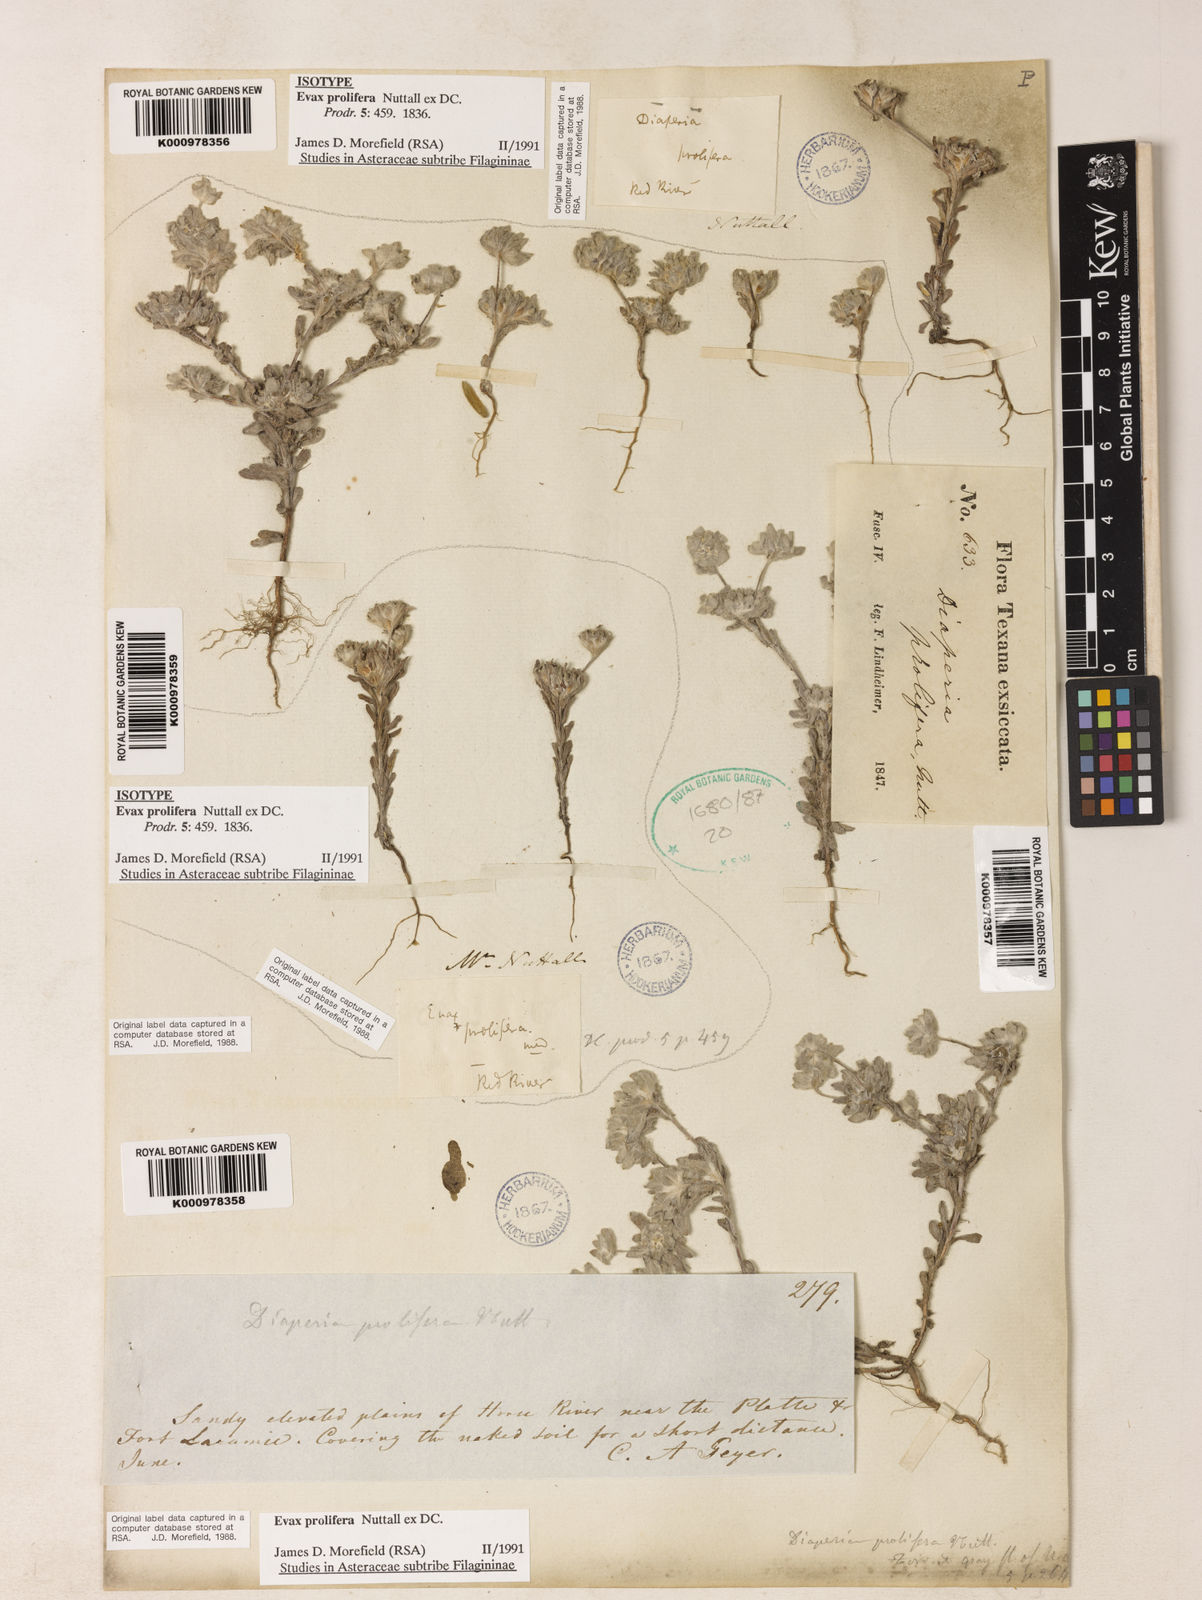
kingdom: Plantae
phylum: Tracheophyta
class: Magnoliopsida
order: Asterales
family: Asteraceae
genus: Diaperia
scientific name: Diaperia prolifera
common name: Big-head rabbit-tobacco
